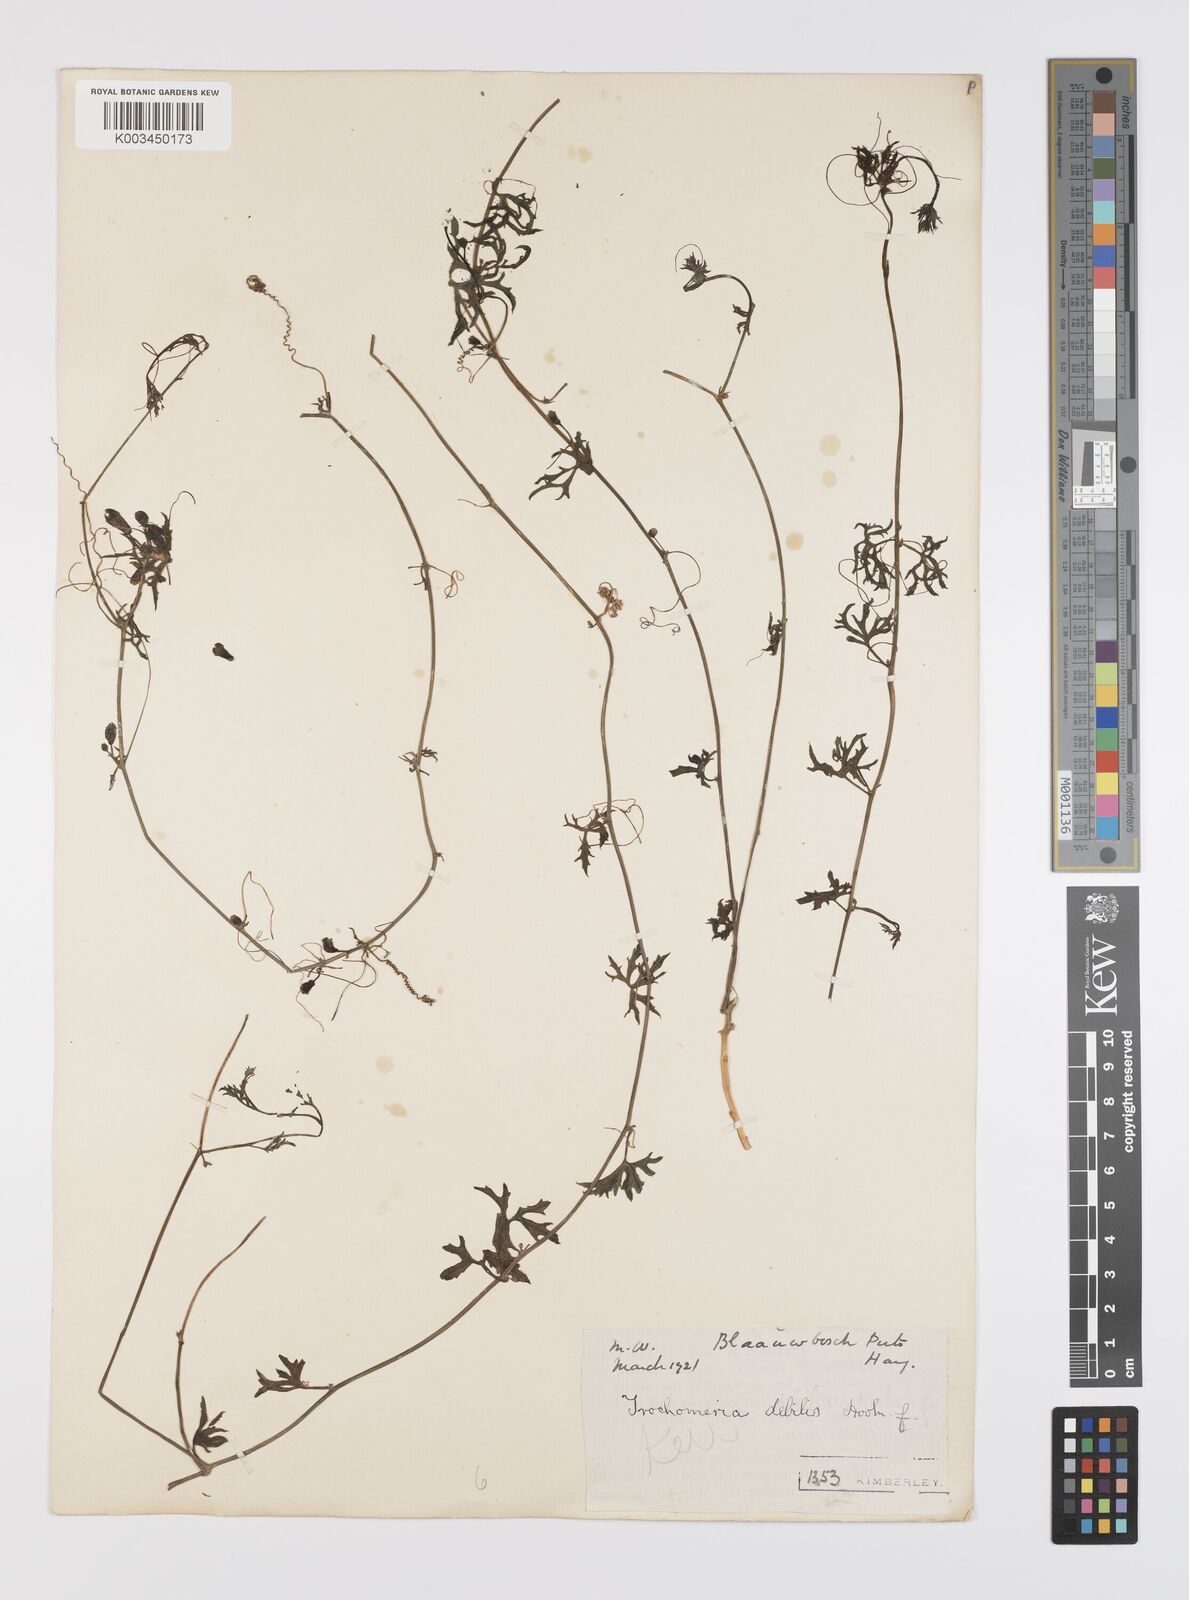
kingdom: Plantae
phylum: Tracheophyta
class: Magnoliopsida
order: Cucurbitales
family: Cucurbitaceae
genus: Trochomeria
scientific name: Trochomeria debilis
